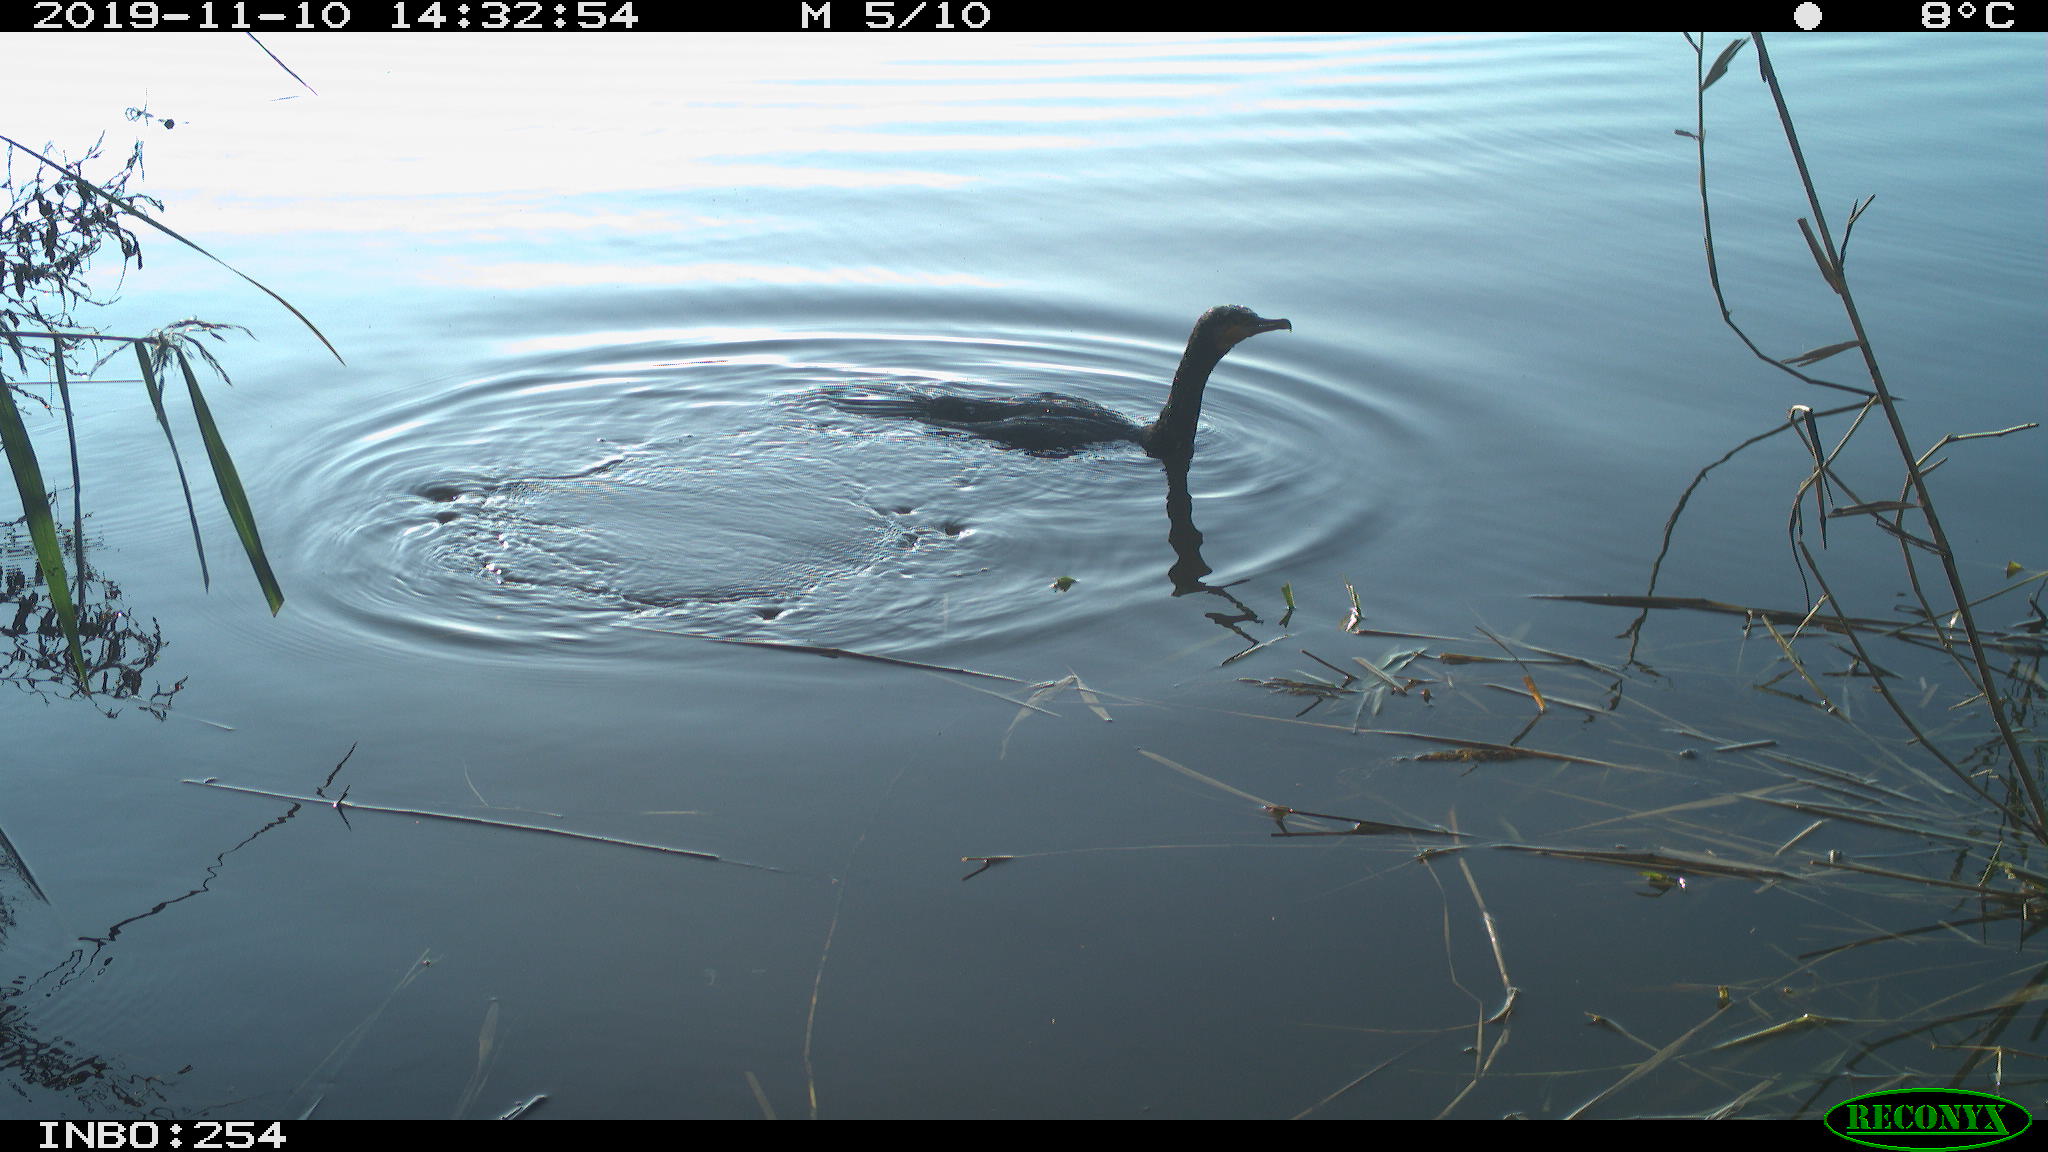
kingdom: Animalia
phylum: Chordata
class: Aves
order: Suliformes
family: Phalacrocoracidae
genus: Phalacrocorax
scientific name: Phalacrocorax carbo
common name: Great cormorant
